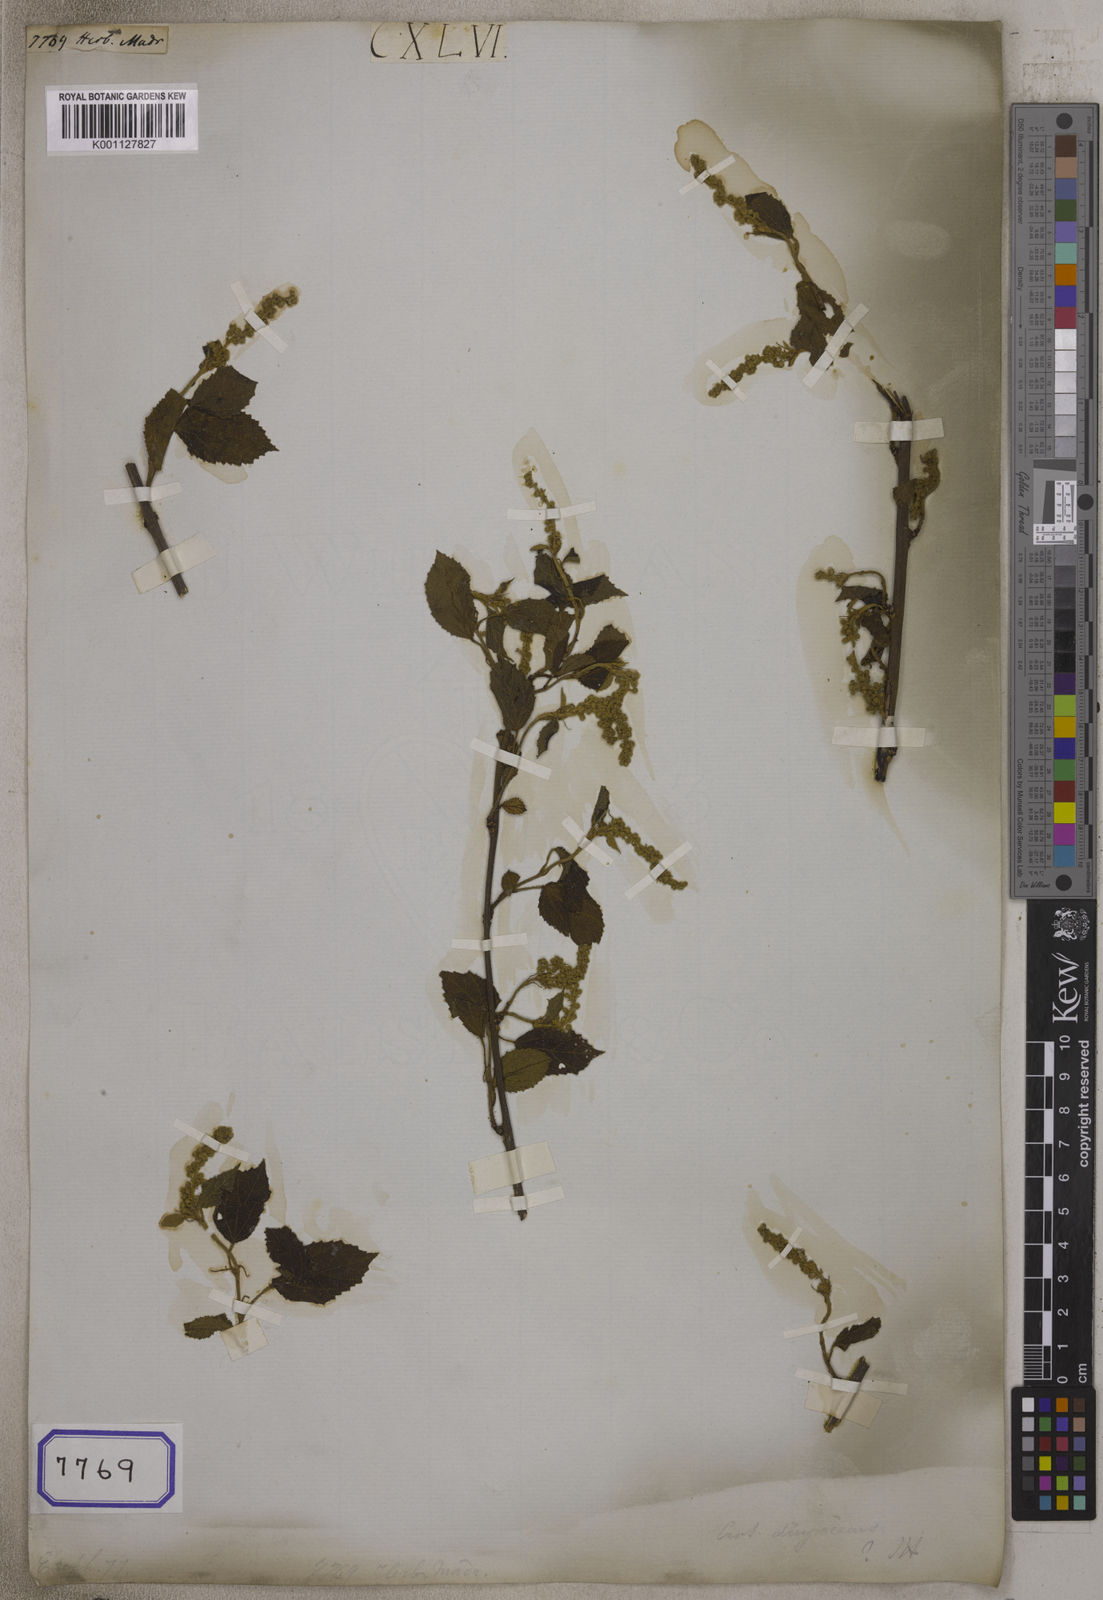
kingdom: Plantae
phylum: Tracheophyta
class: Magnoliopsida
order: Malpighiales
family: Euphorbiaceae
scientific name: Euphorbiaceae
